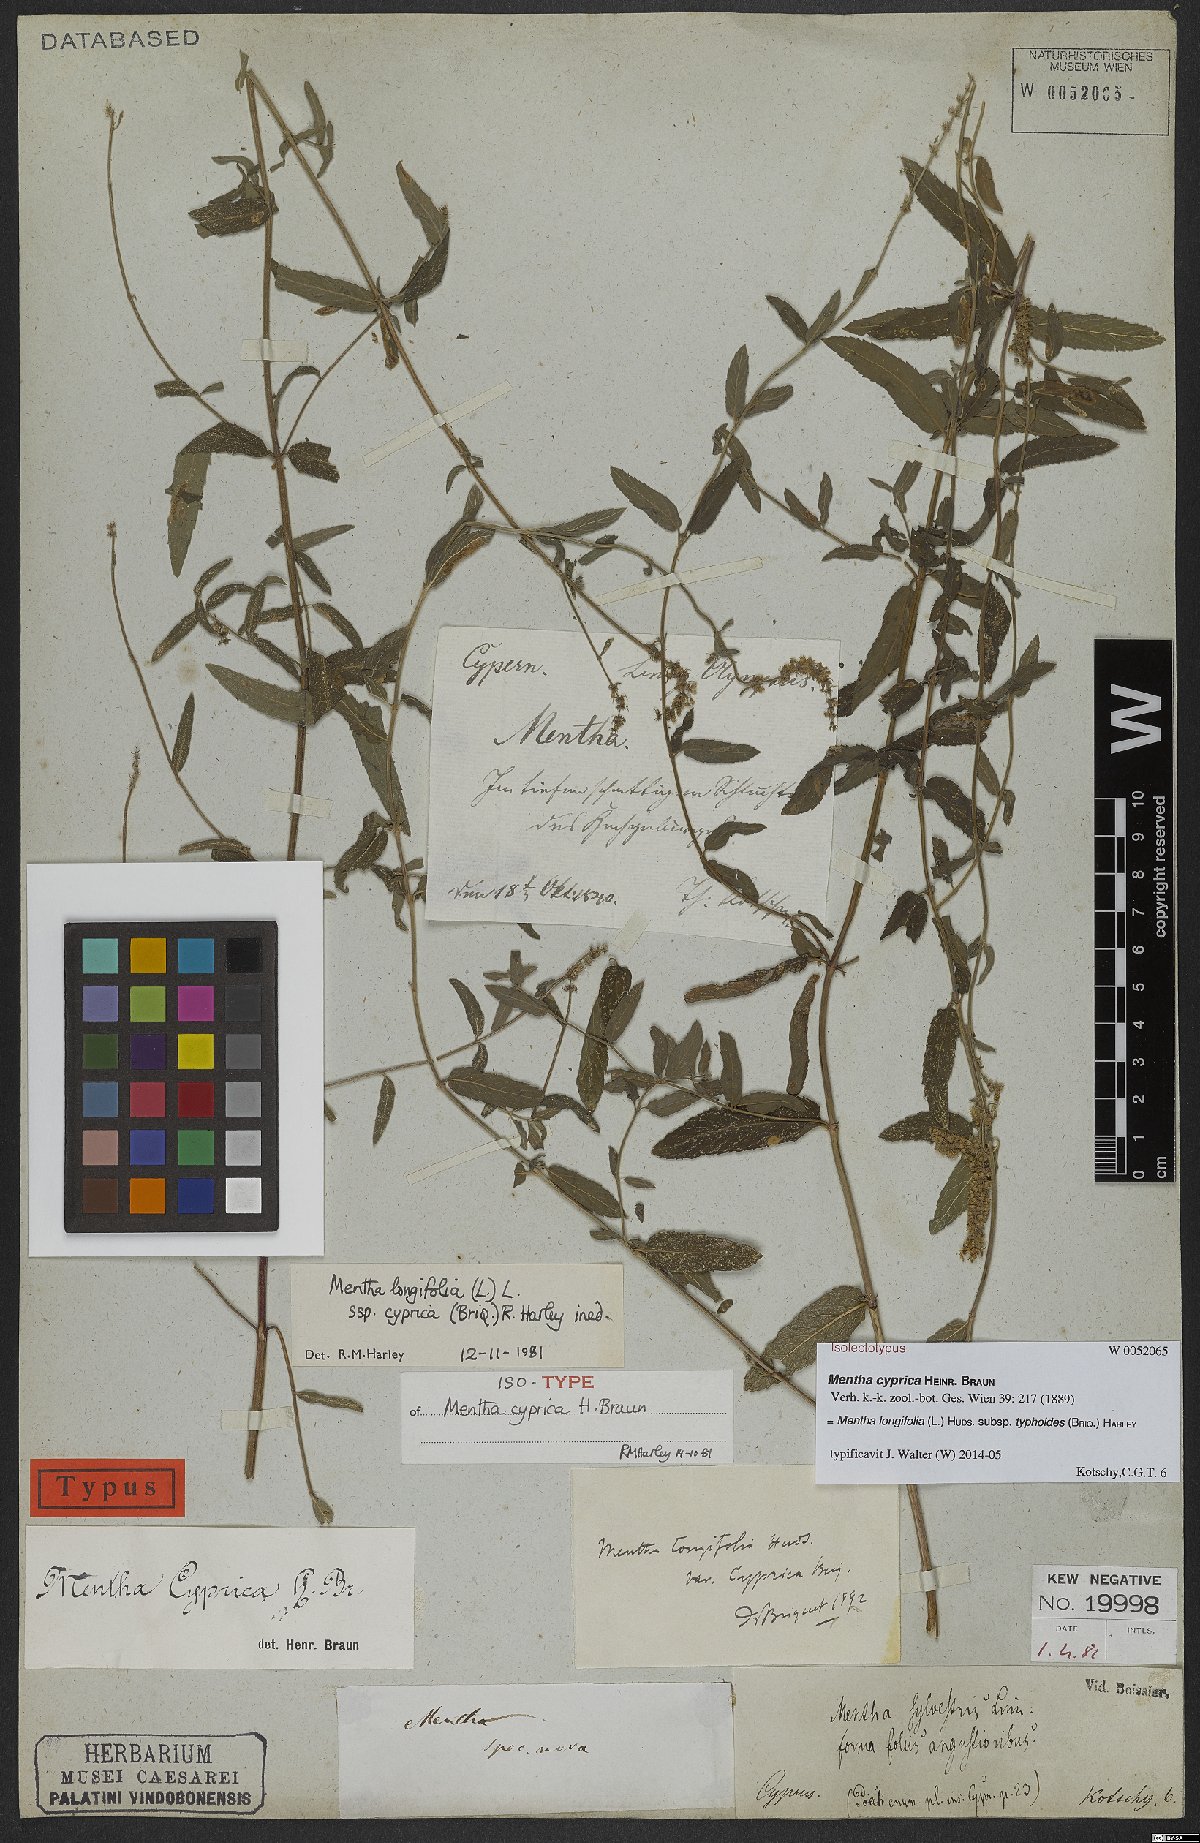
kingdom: Plantae
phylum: Tracheophyta
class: Magnoliopsida
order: Lamiales
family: Lamiaceae
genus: Mentha
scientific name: Mentha longifolia
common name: Horse mint
